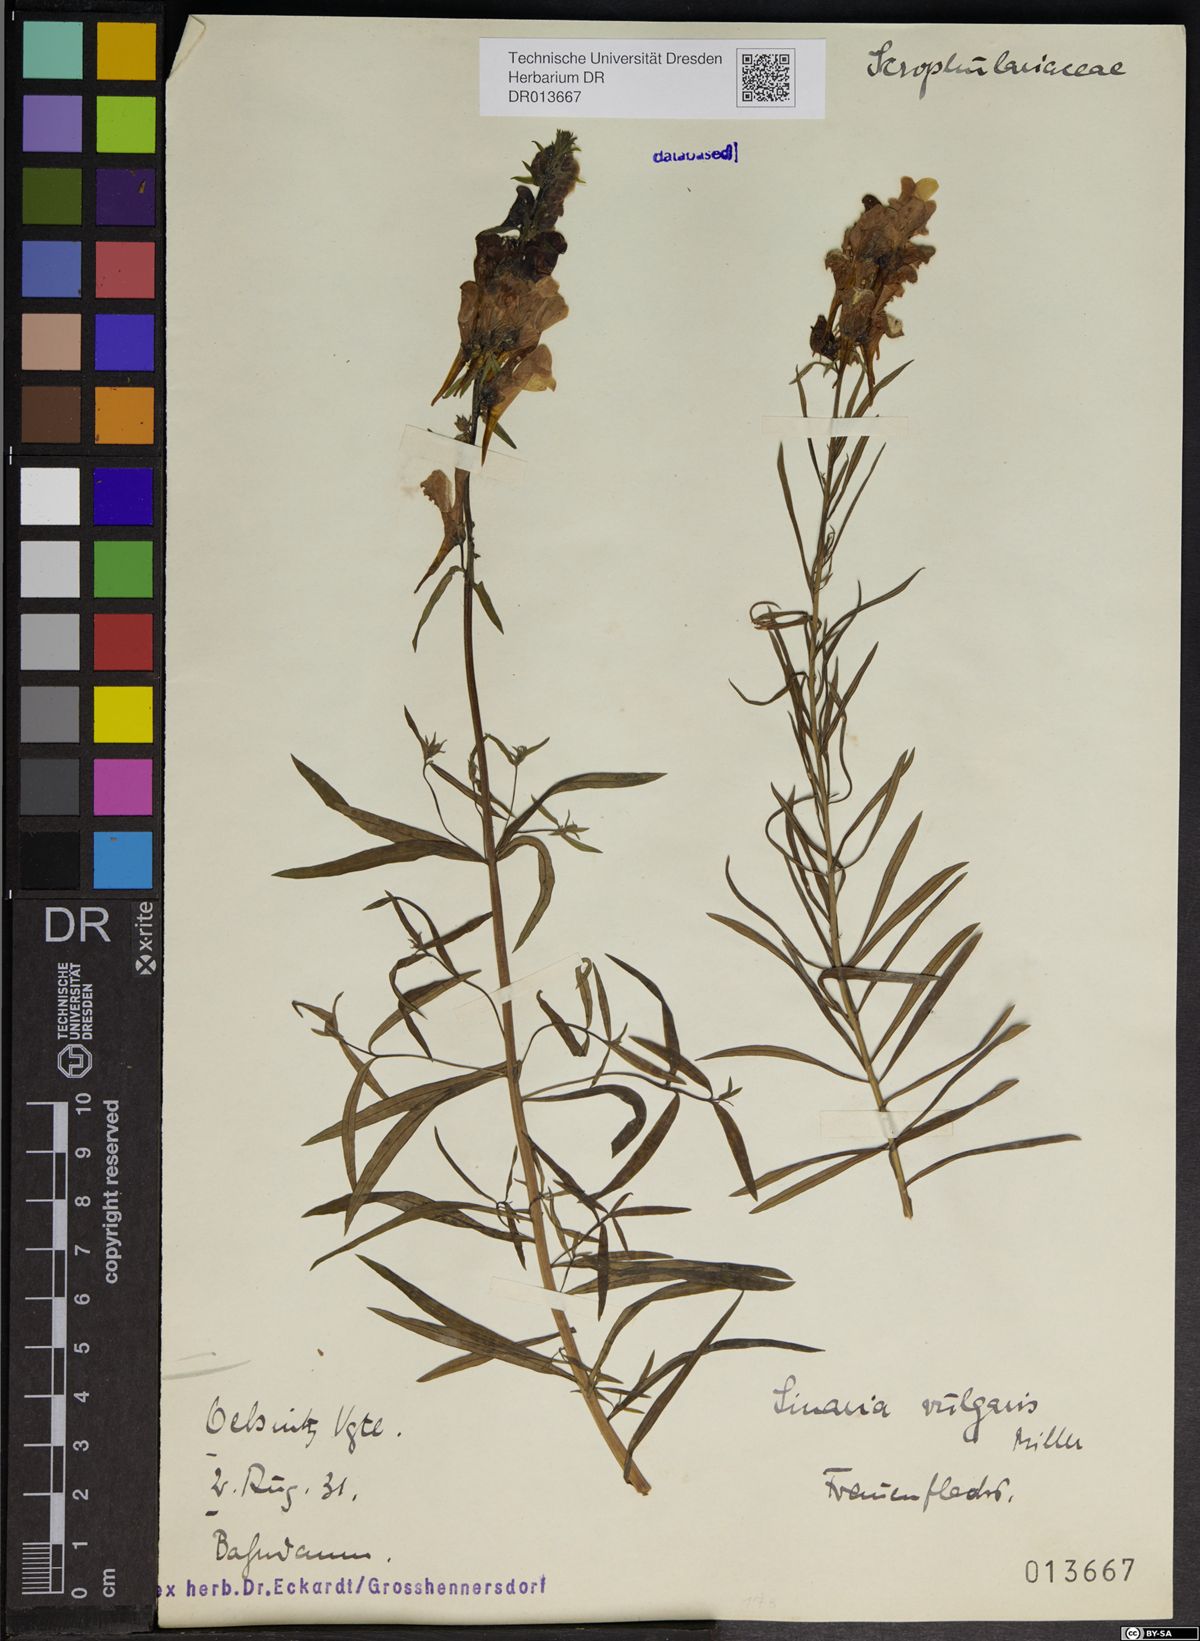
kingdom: Plantae
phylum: Tracheophyta
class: Magnoliopsida
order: Lamiales
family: Plantaginaceae
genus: Linaria
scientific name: Linaria vulgaris
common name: Butter and eggs
